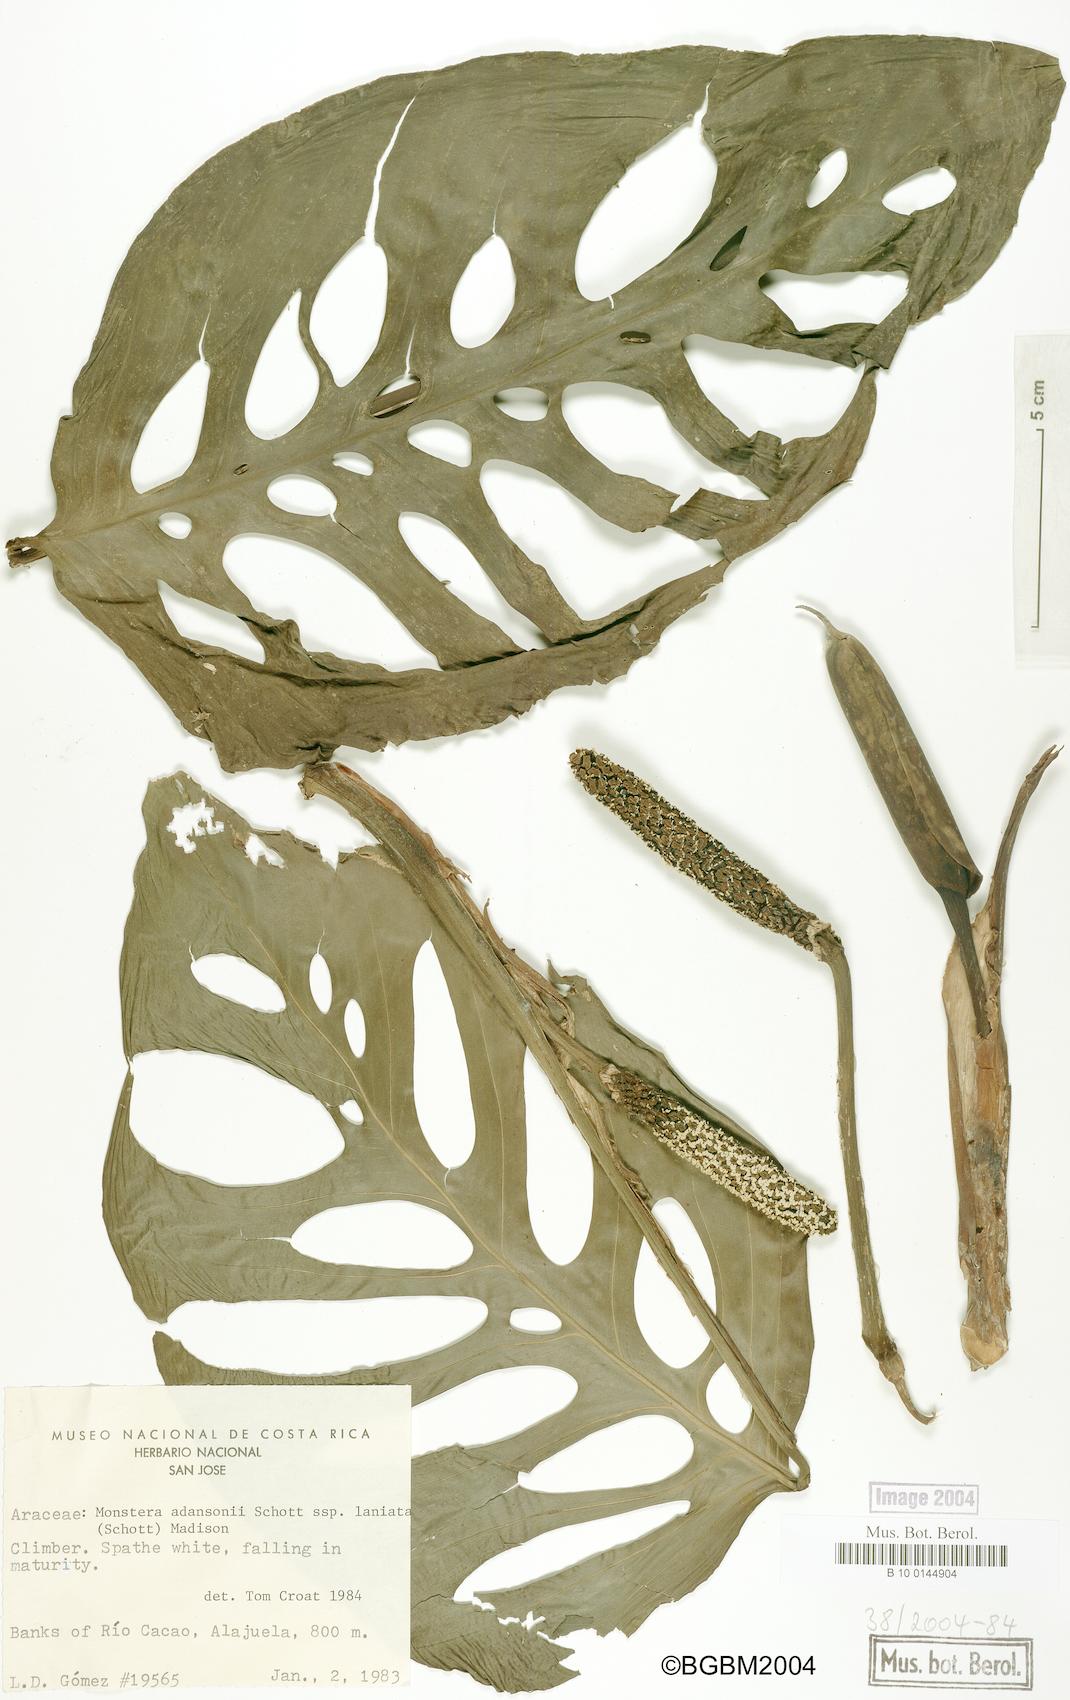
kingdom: Plantae
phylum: Tracheophyta
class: Liliopsida
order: Alismatales
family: Araceae
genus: Monstera
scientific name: Monstera adansonii
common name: Tarovine
